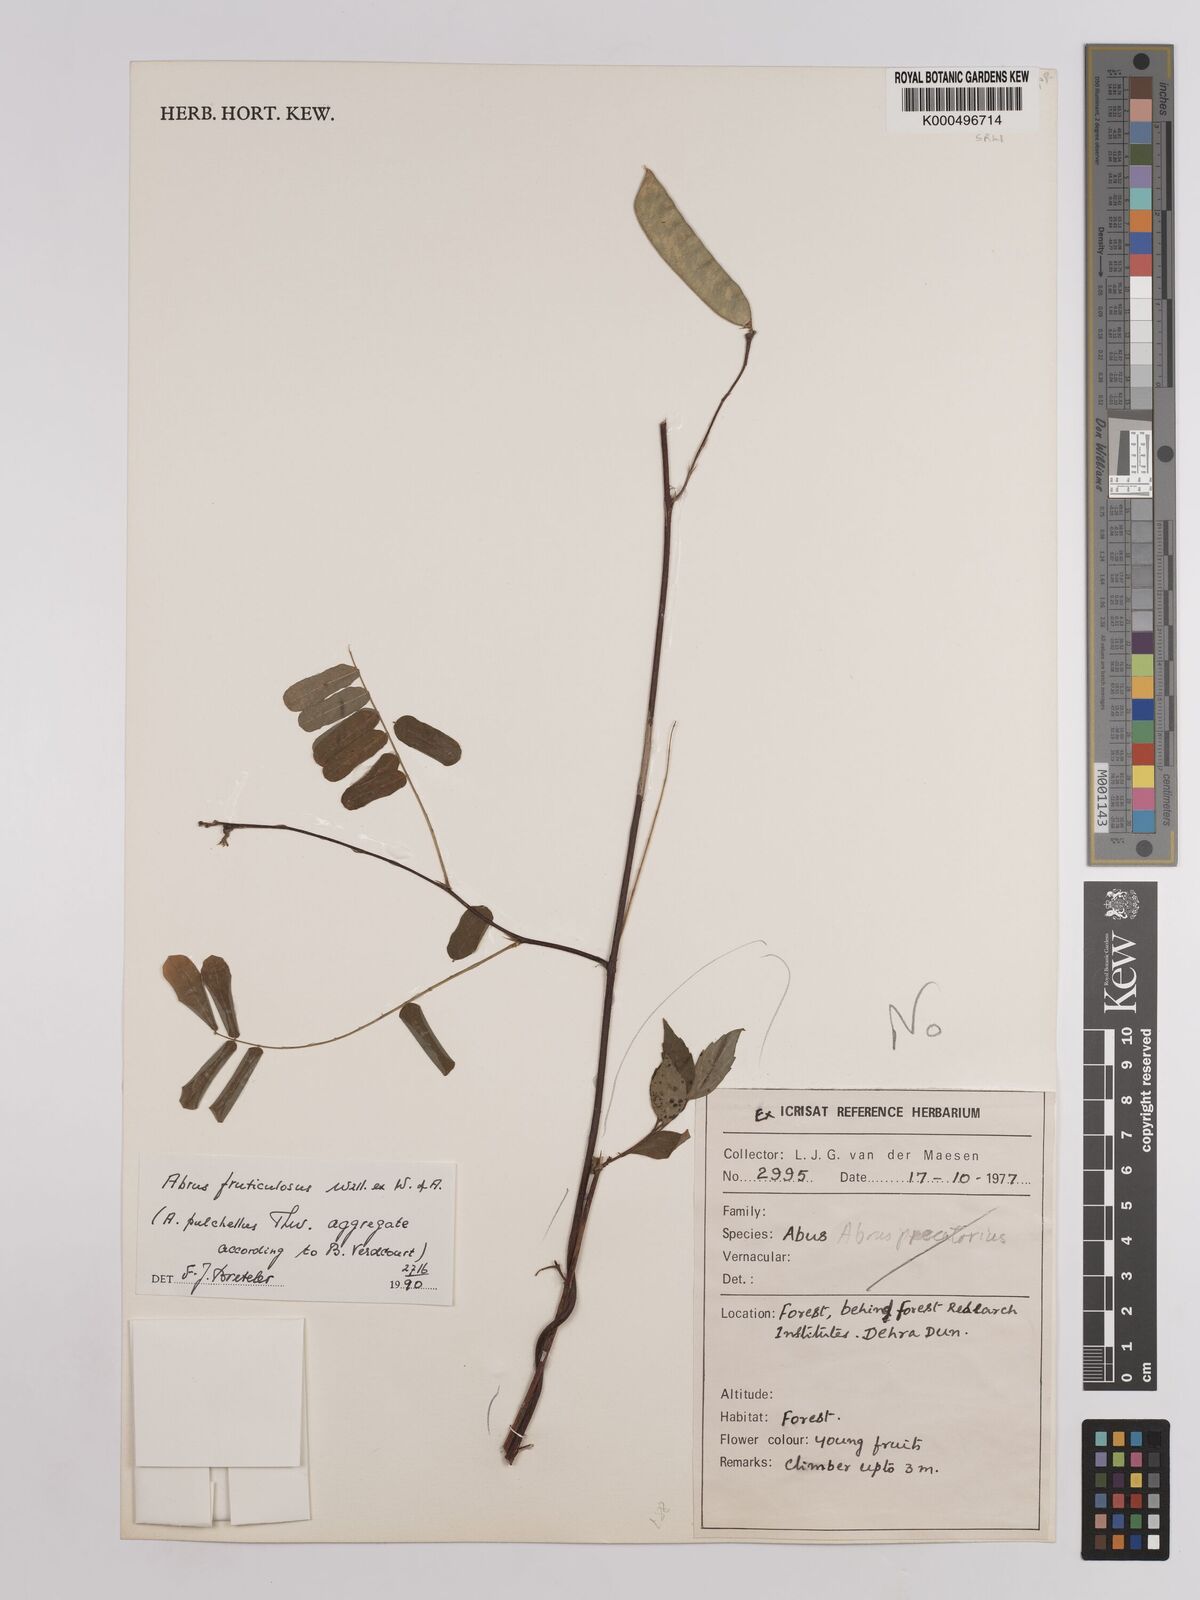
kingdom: Plantae
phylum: Tracheophyta
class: Magnoliopsida
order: Fabales
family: Fabaceae
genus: Abrus
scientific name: Abrus fruticulosus
